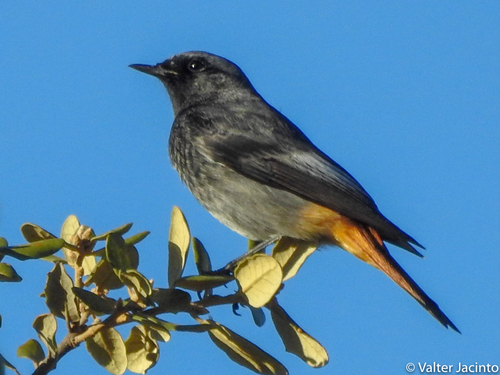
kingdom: Animalia
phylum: Chordata
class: Aves
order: Passeriformes
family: Muscicapidae
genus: Phoenicurus
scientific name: Phoenicurus ochruros
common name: Black redstart
